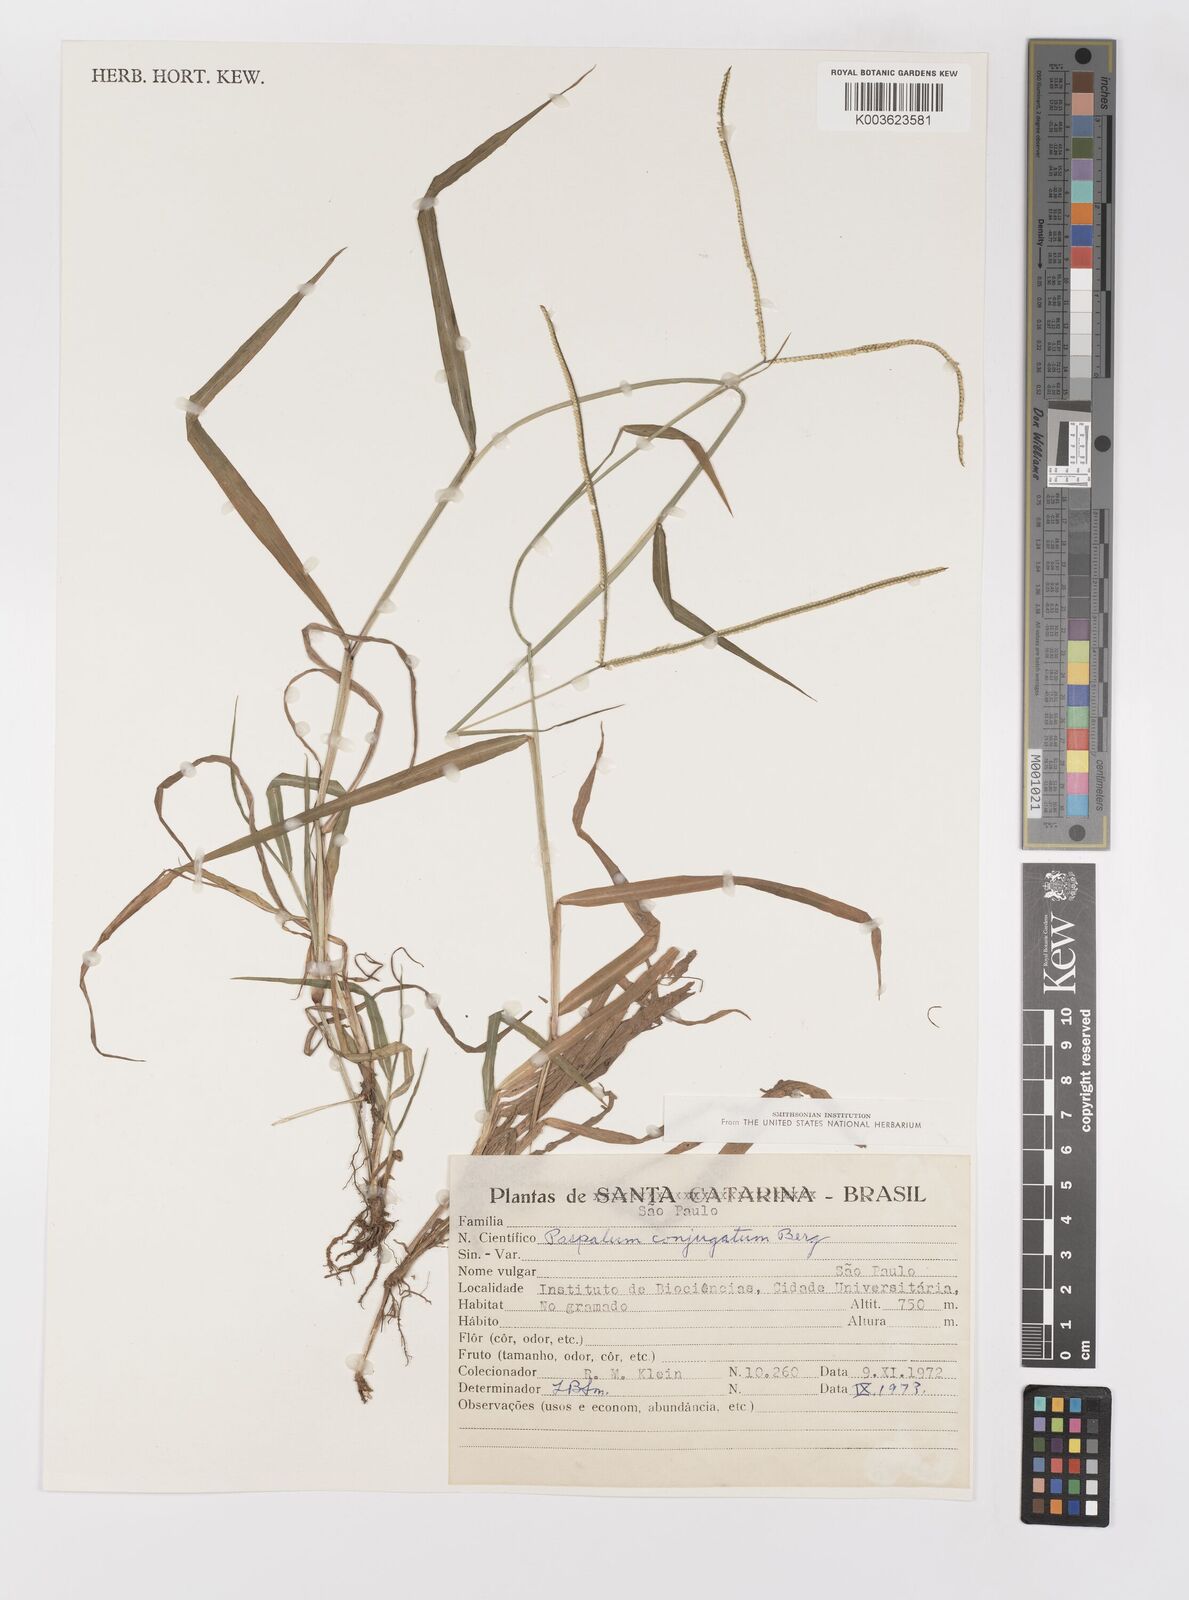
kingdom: Plantae
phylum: Tracheophyta
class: Liliopsida
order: Poales
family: Poaceae
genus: Paspalum
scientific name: Paspalum conjugatum
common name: Hilograss
